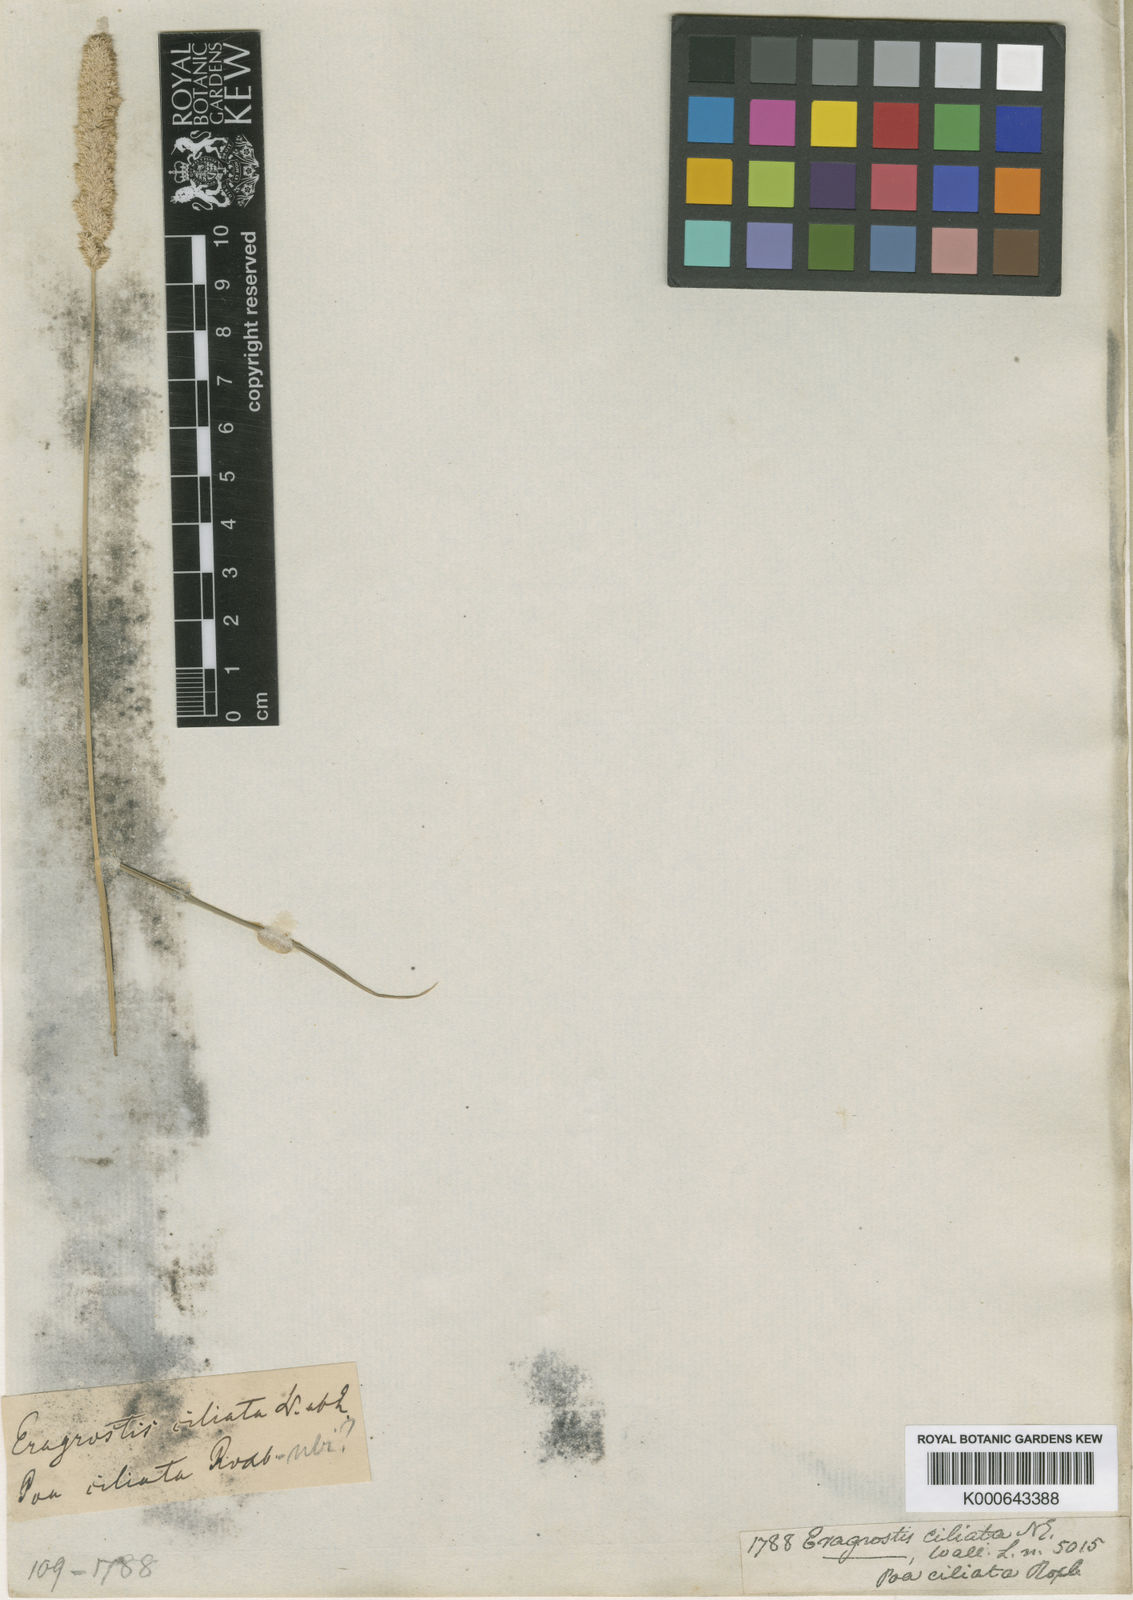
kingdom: Plantae
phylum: Tracheophyta
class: Liliopsida
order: Poales
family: Poaceae
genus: Eragrostis
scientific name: Eragrostis ciliata
